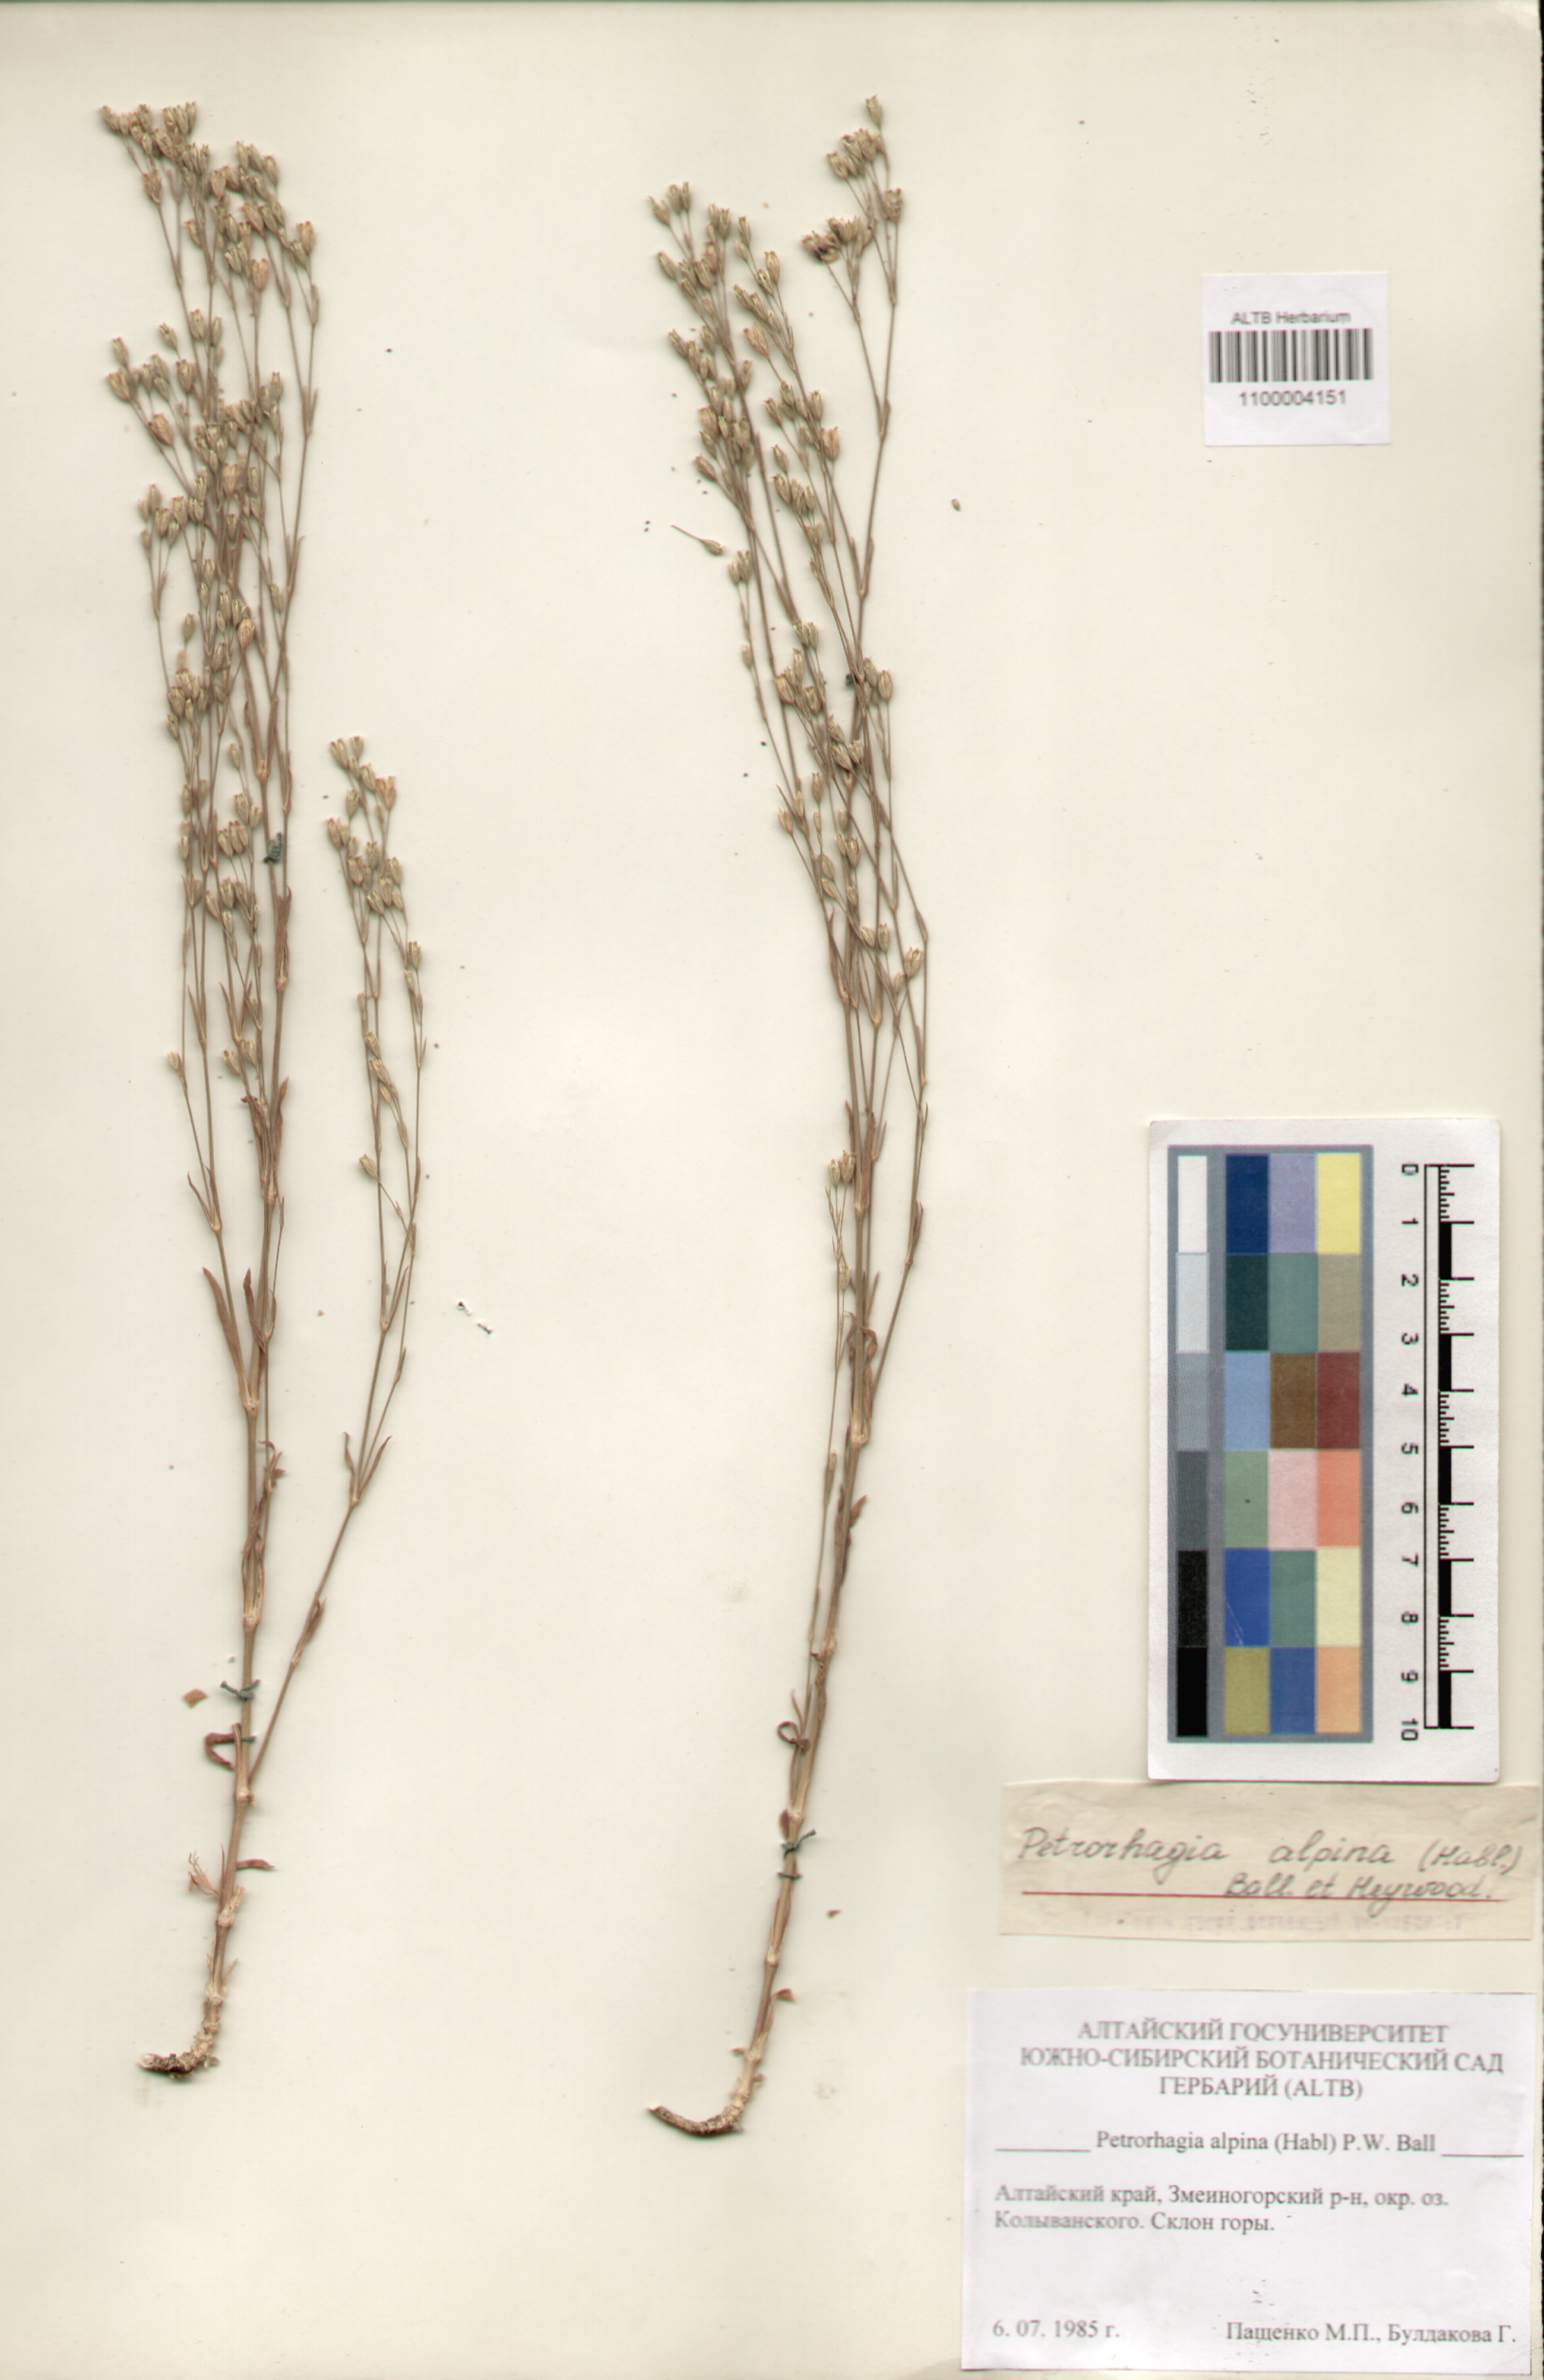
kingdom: Plantae
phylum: Tracheophyta
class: Magnoliopsida
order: Caryophyllales
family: Caryophyllaceae
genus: Petrorhagia
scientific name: Petrorhagia alpina
